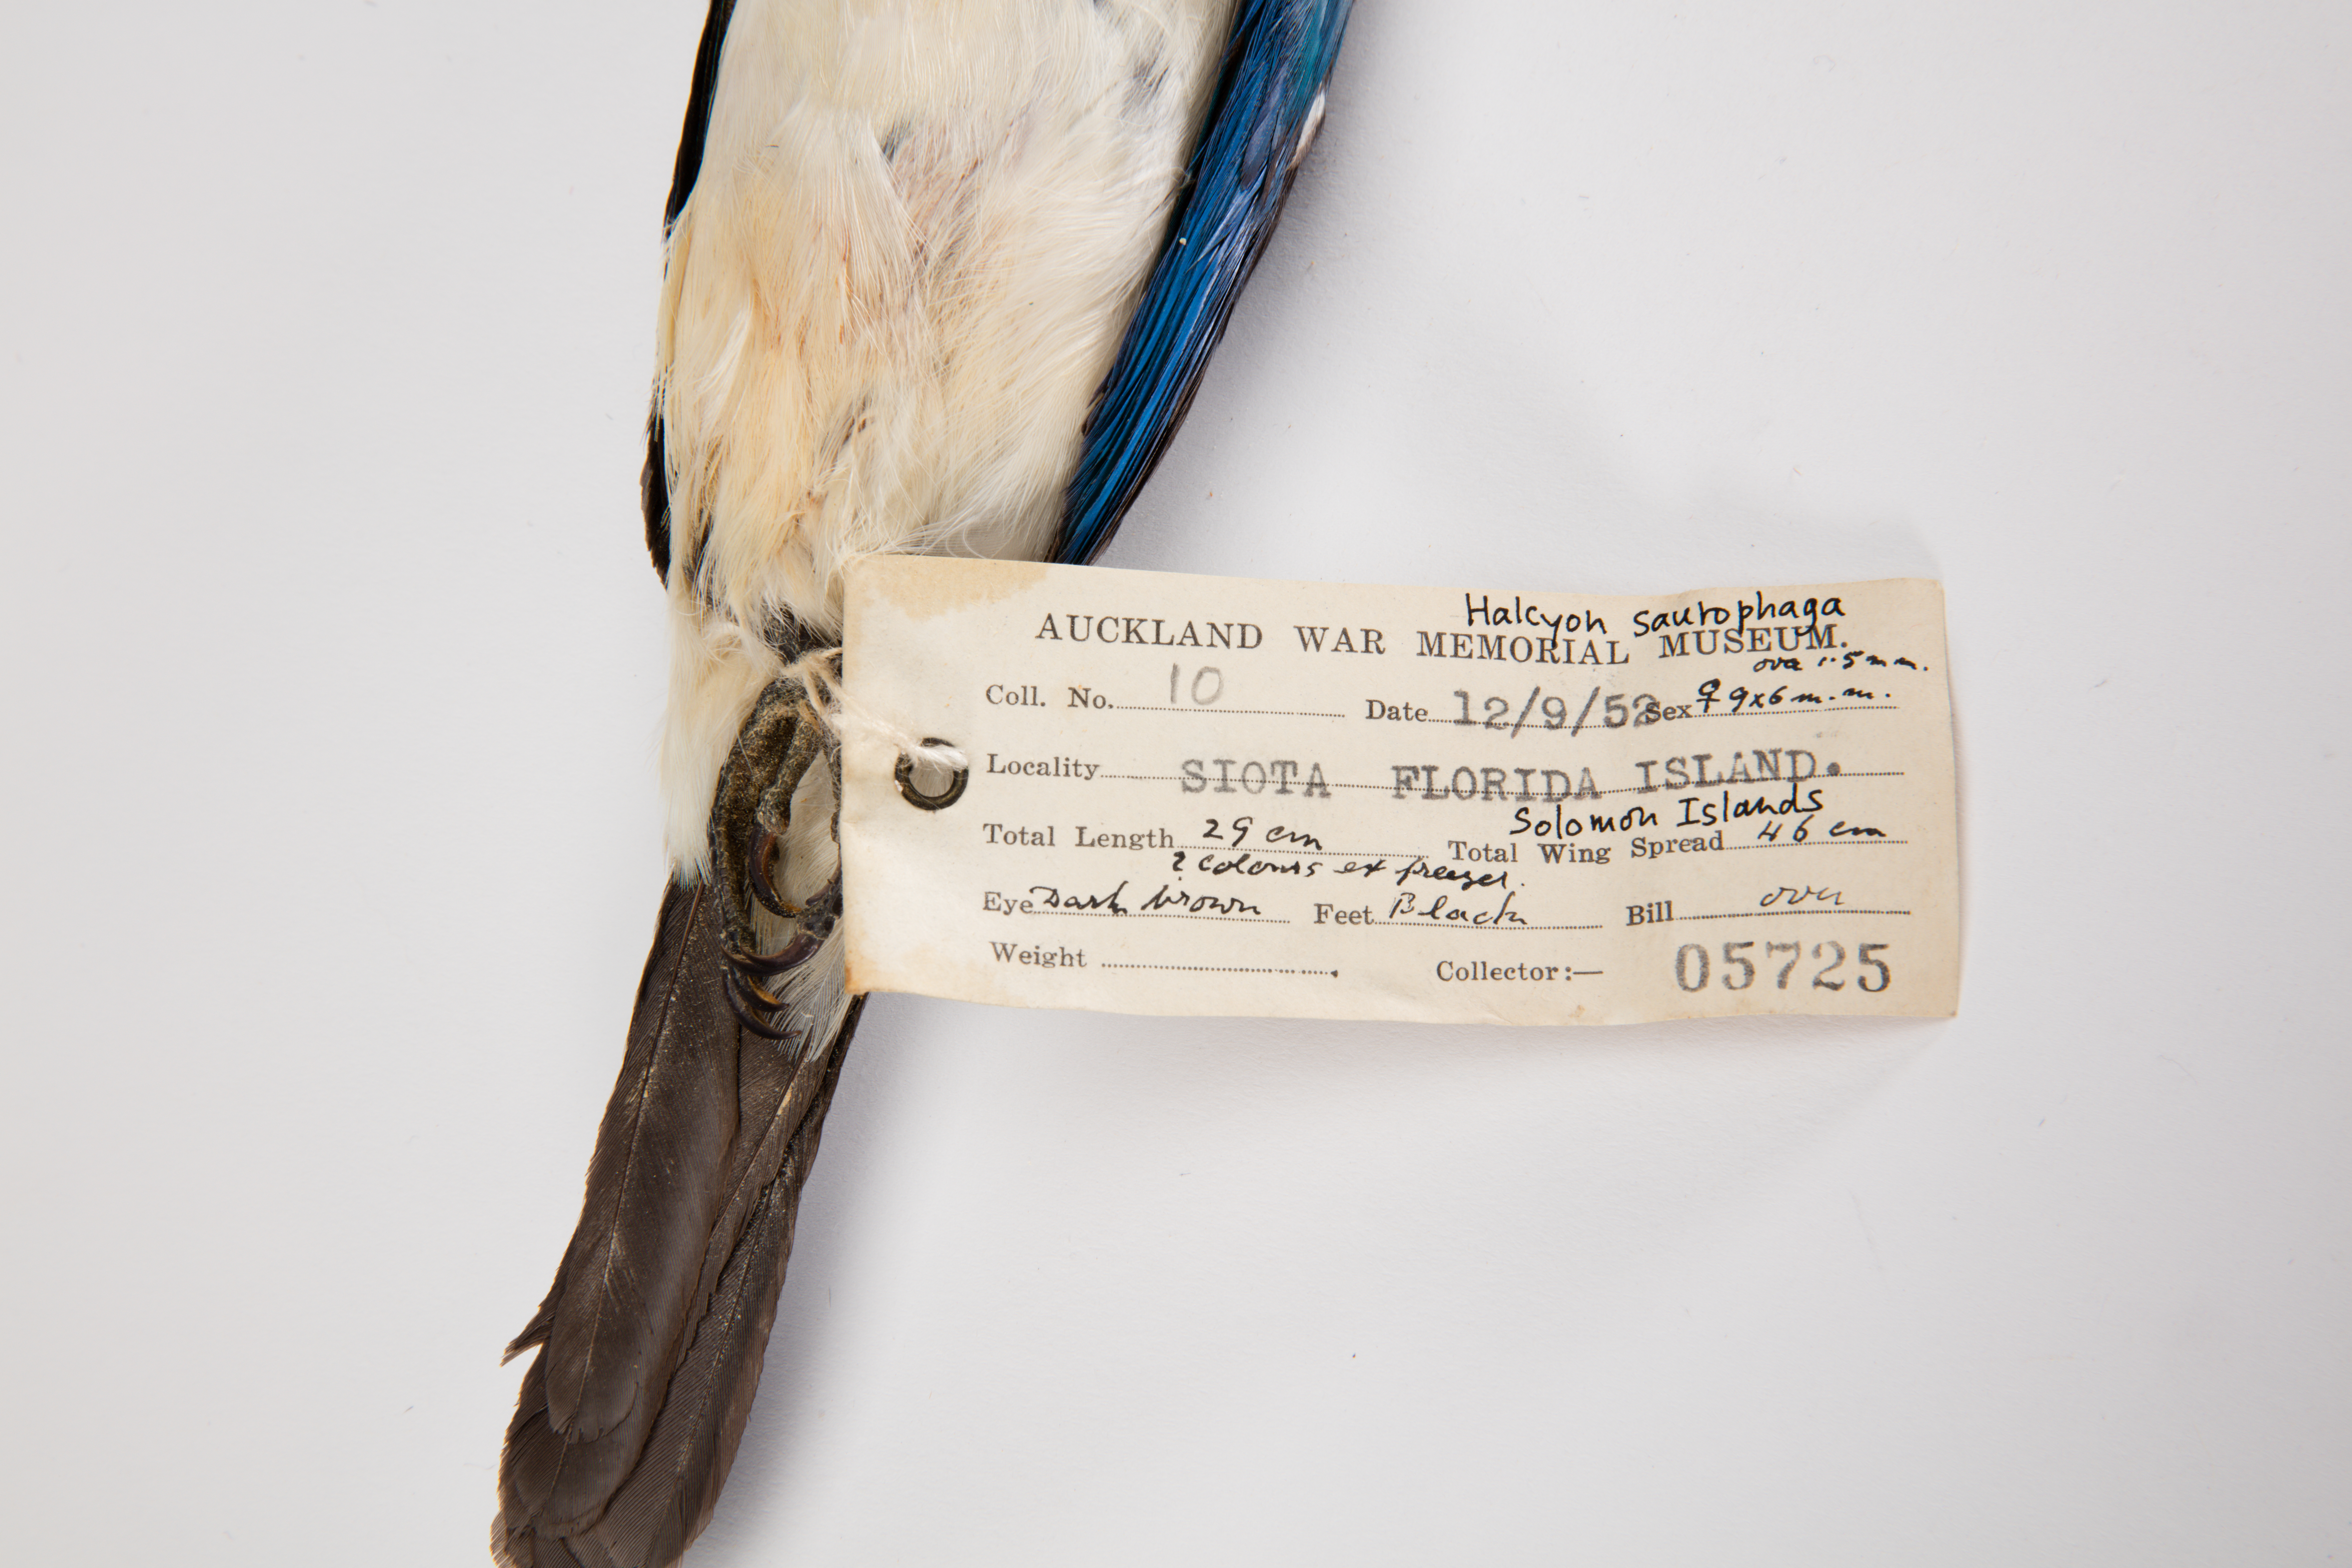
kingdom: Animalia
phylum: Chordata
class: Aves
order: Coraciiformes
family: Alcedinidae
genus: Todiramphus
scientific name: Todiramphus saurophagus
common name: Beach kingfisher
